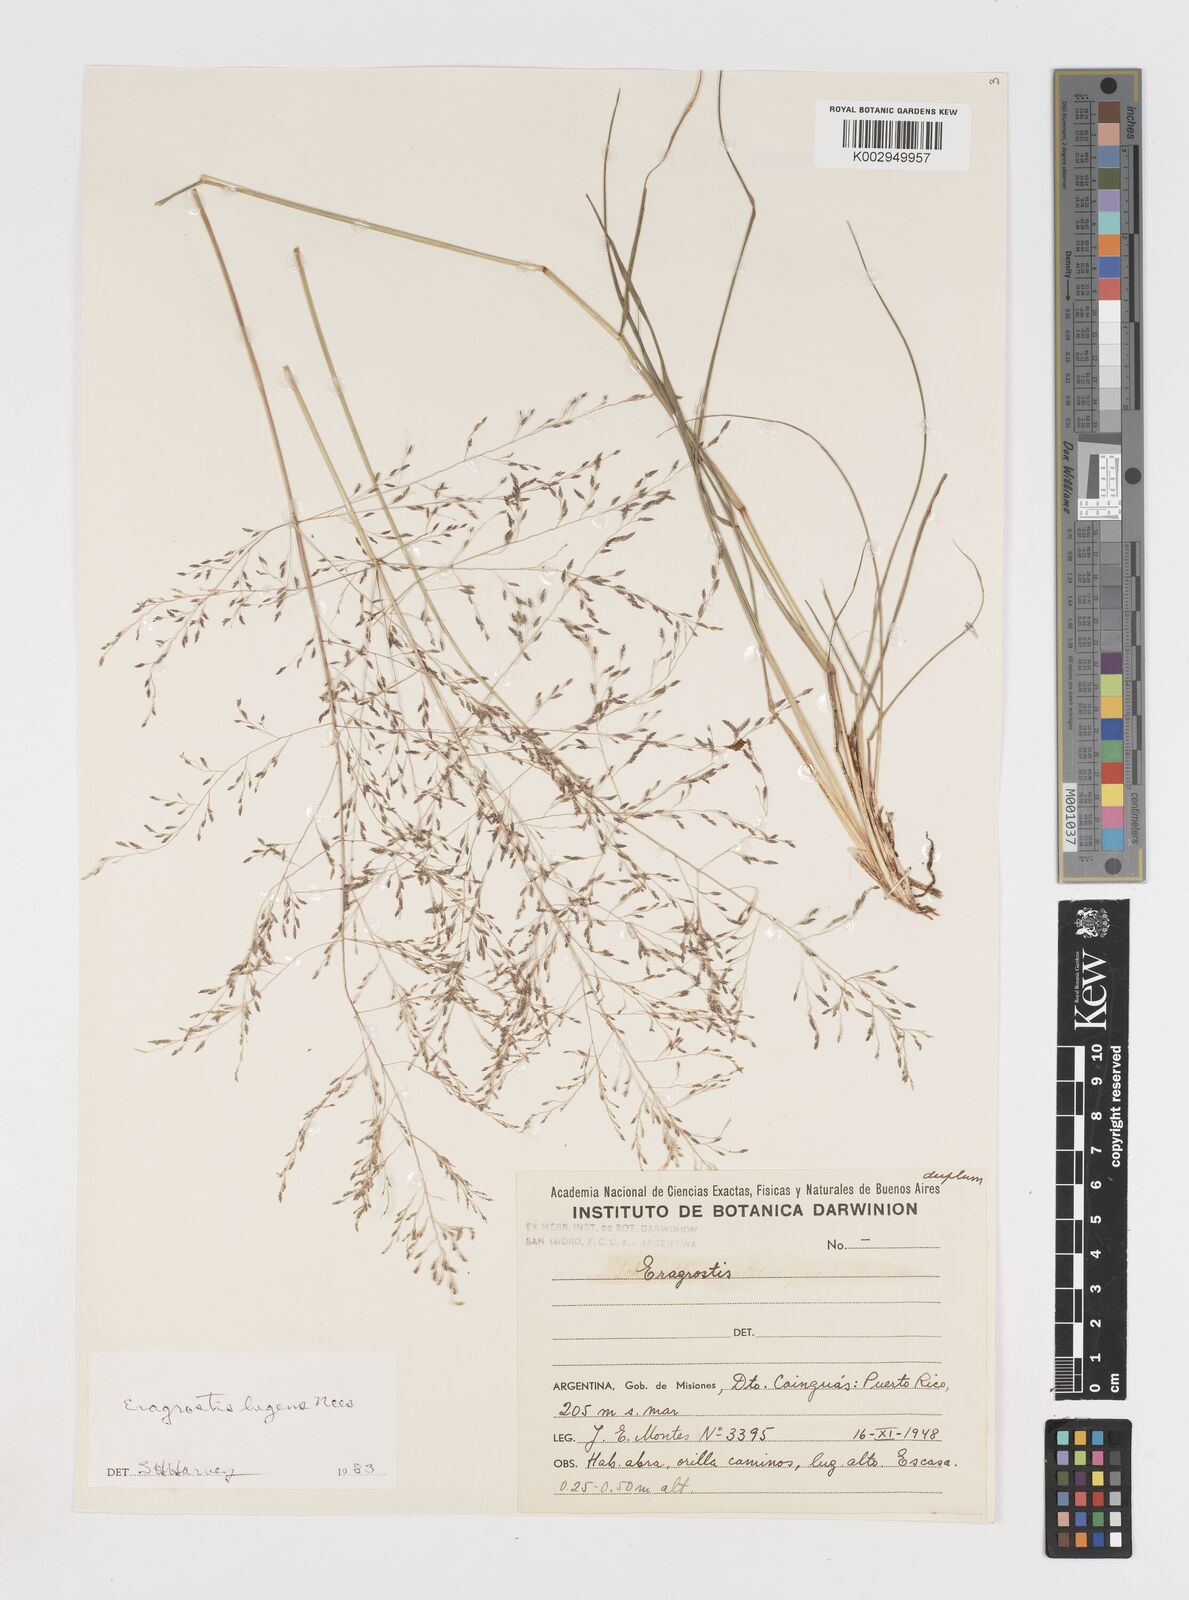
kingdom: Plantae
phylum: Tracheophyta
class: Liliopsida
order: Poales
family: Poaceae
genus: Eragrostis
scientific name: Eragrostis
